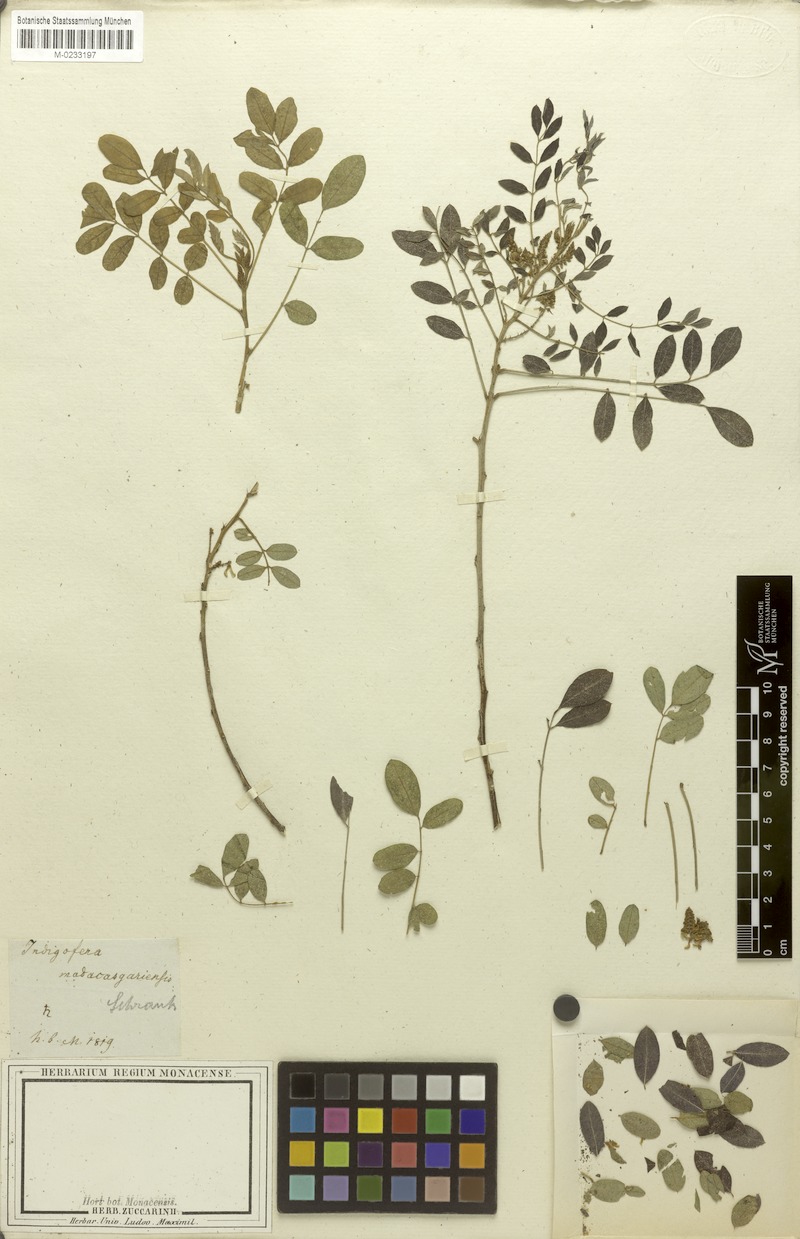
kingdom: Plantae
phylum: Tracheophyta
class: Magnoliopsida
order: Fabales
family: Fabaceae
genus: Indigofera
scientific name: Indigofera arrecta
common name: Bengal indigo
